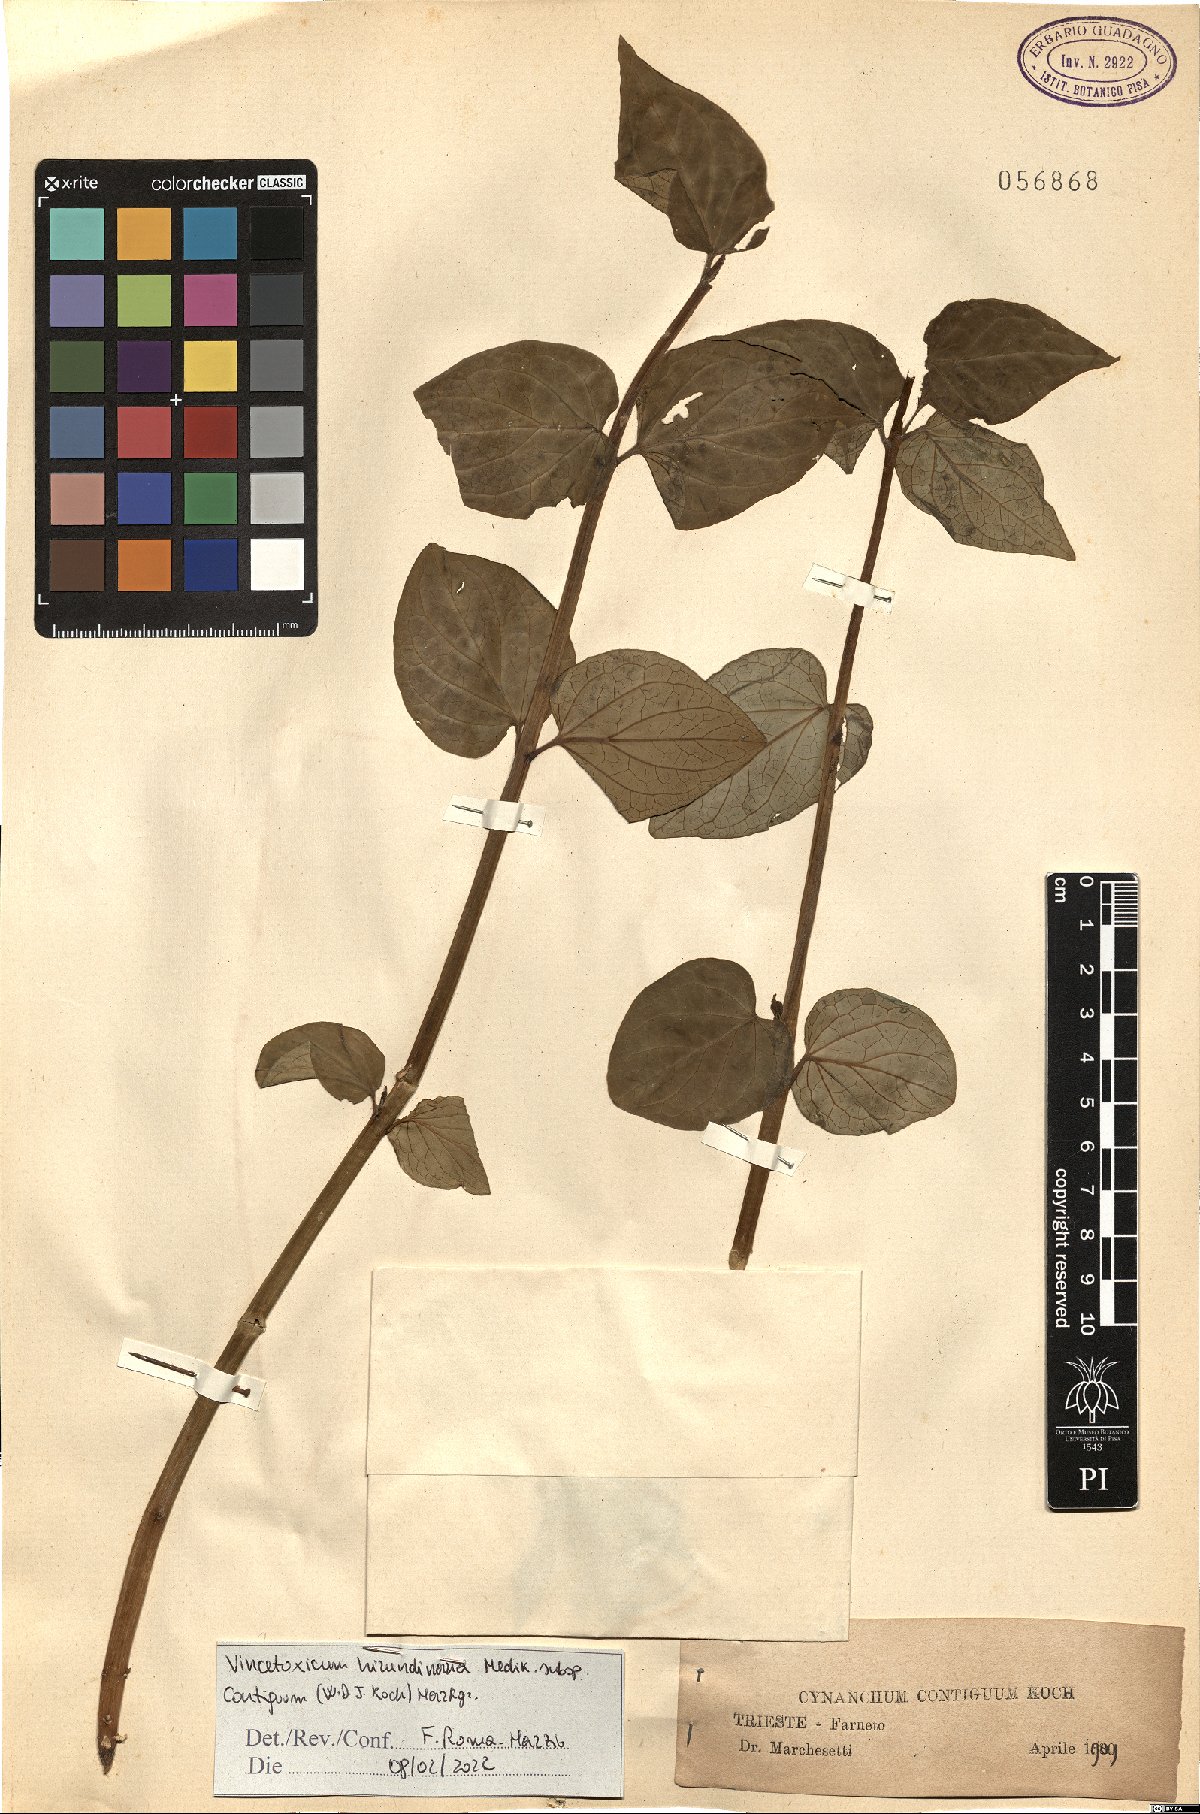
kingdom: Plantae
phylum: Tracheophyta
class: Magnoliopsida
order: Gentianales
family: Apocynaceae
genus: Vincetoxicum
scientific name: Vincetoxicum hirundinaria
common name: White swallowwort
